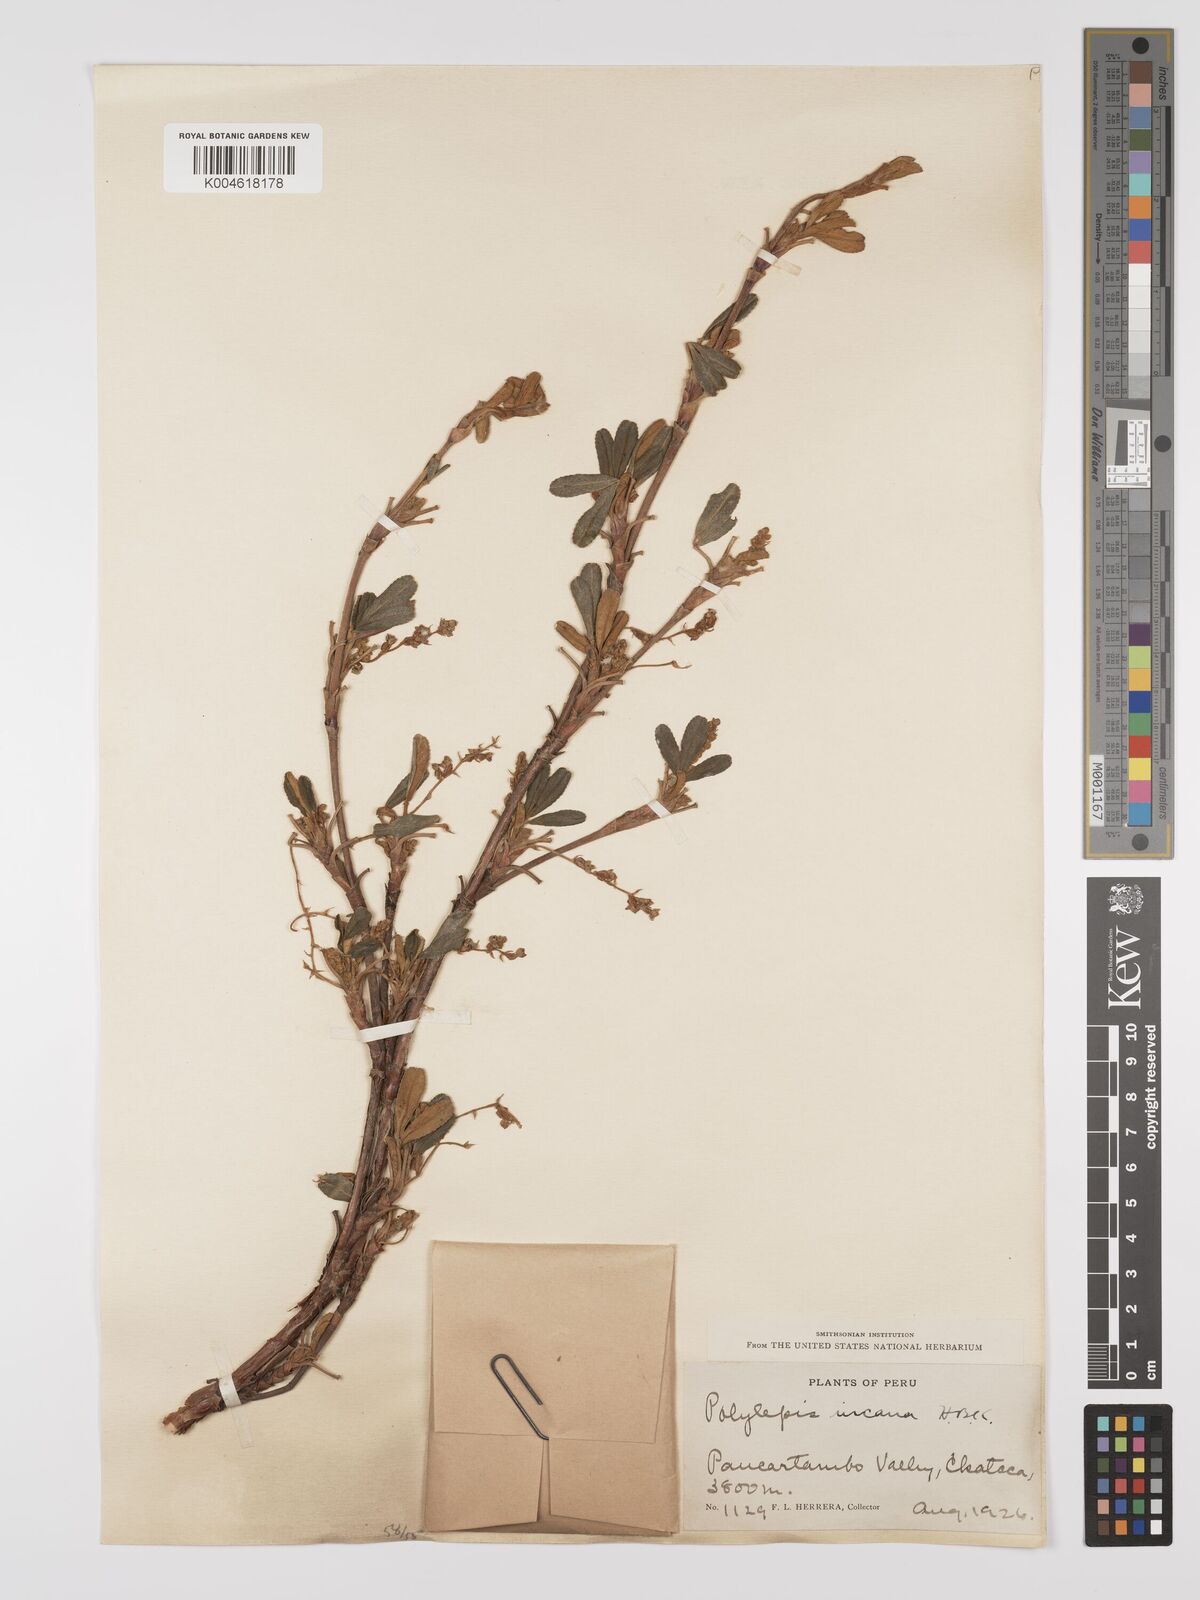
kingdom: Plantae
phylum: Tracheophyta
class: Magnoliopsida
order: Rosales
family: Rosaceae
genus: Polylepis
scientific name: Polylepis incana
